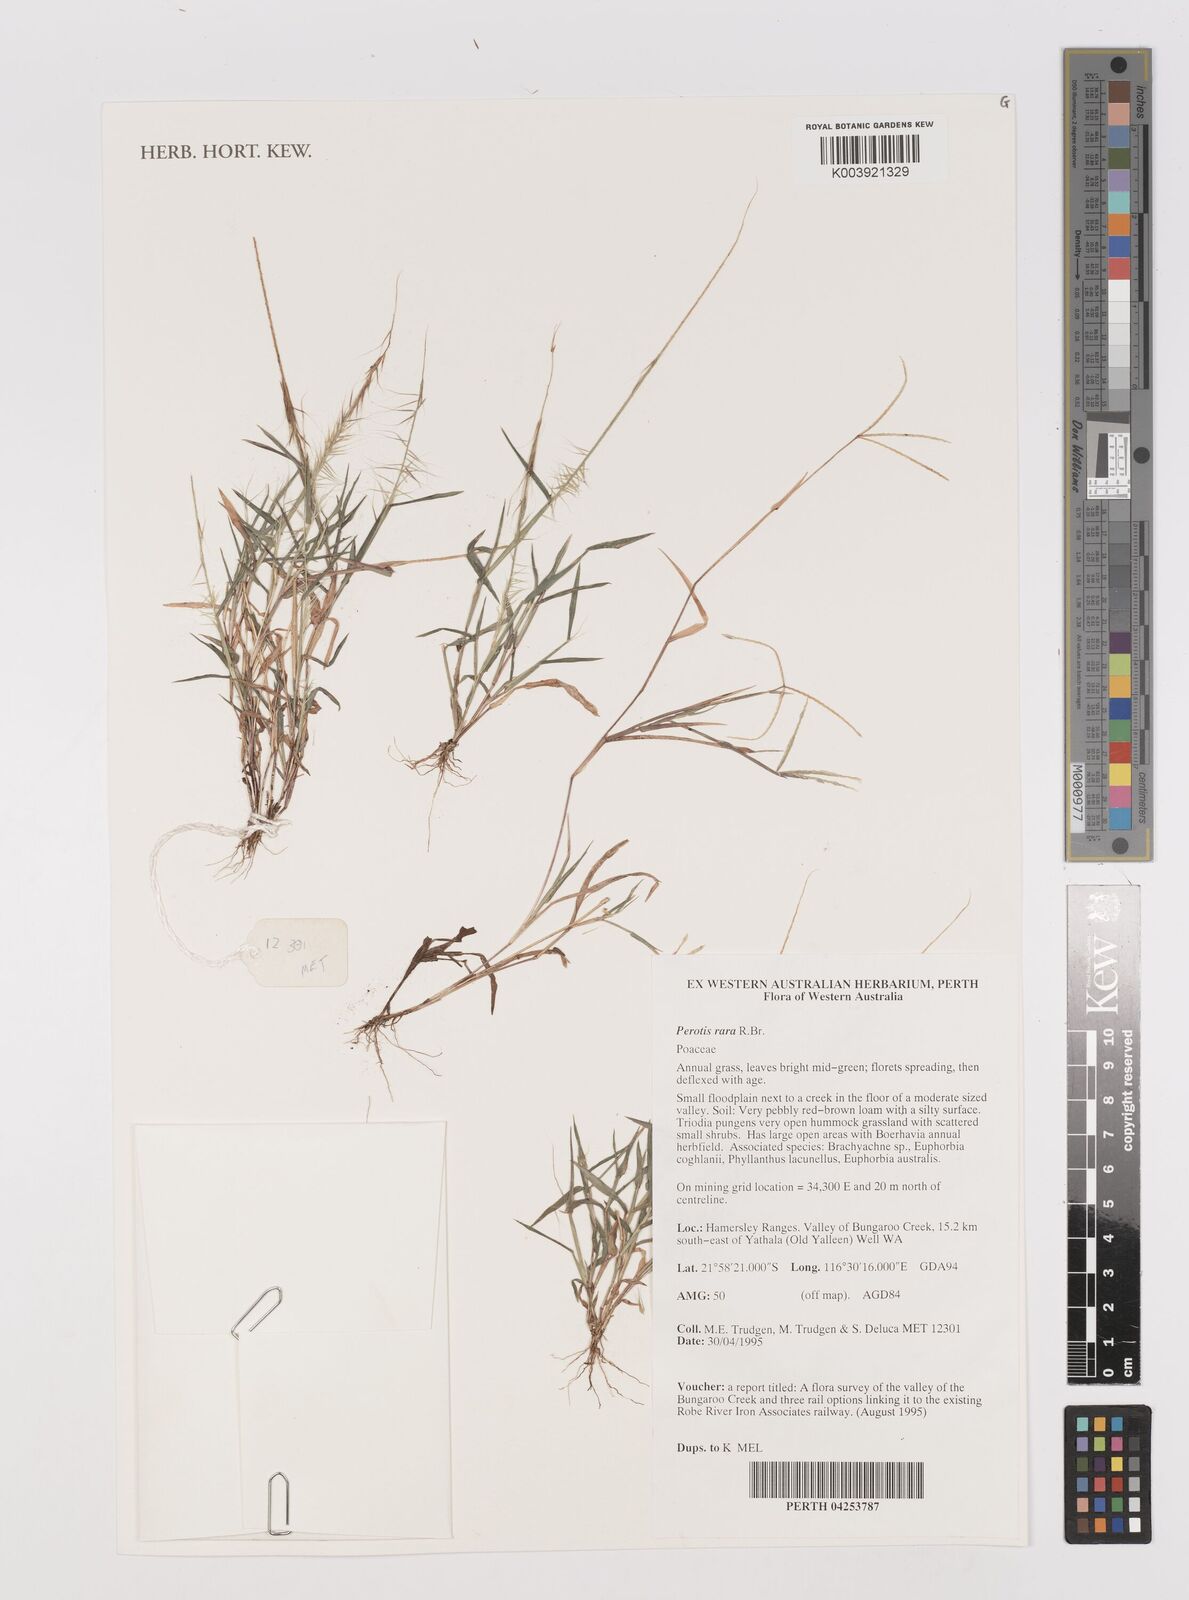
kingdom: Plantae
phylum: Tracheophyta
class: Liliopsida
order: Poales
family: Poaceae
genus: Perotis
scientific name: Perotis rara
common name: Comet grass
